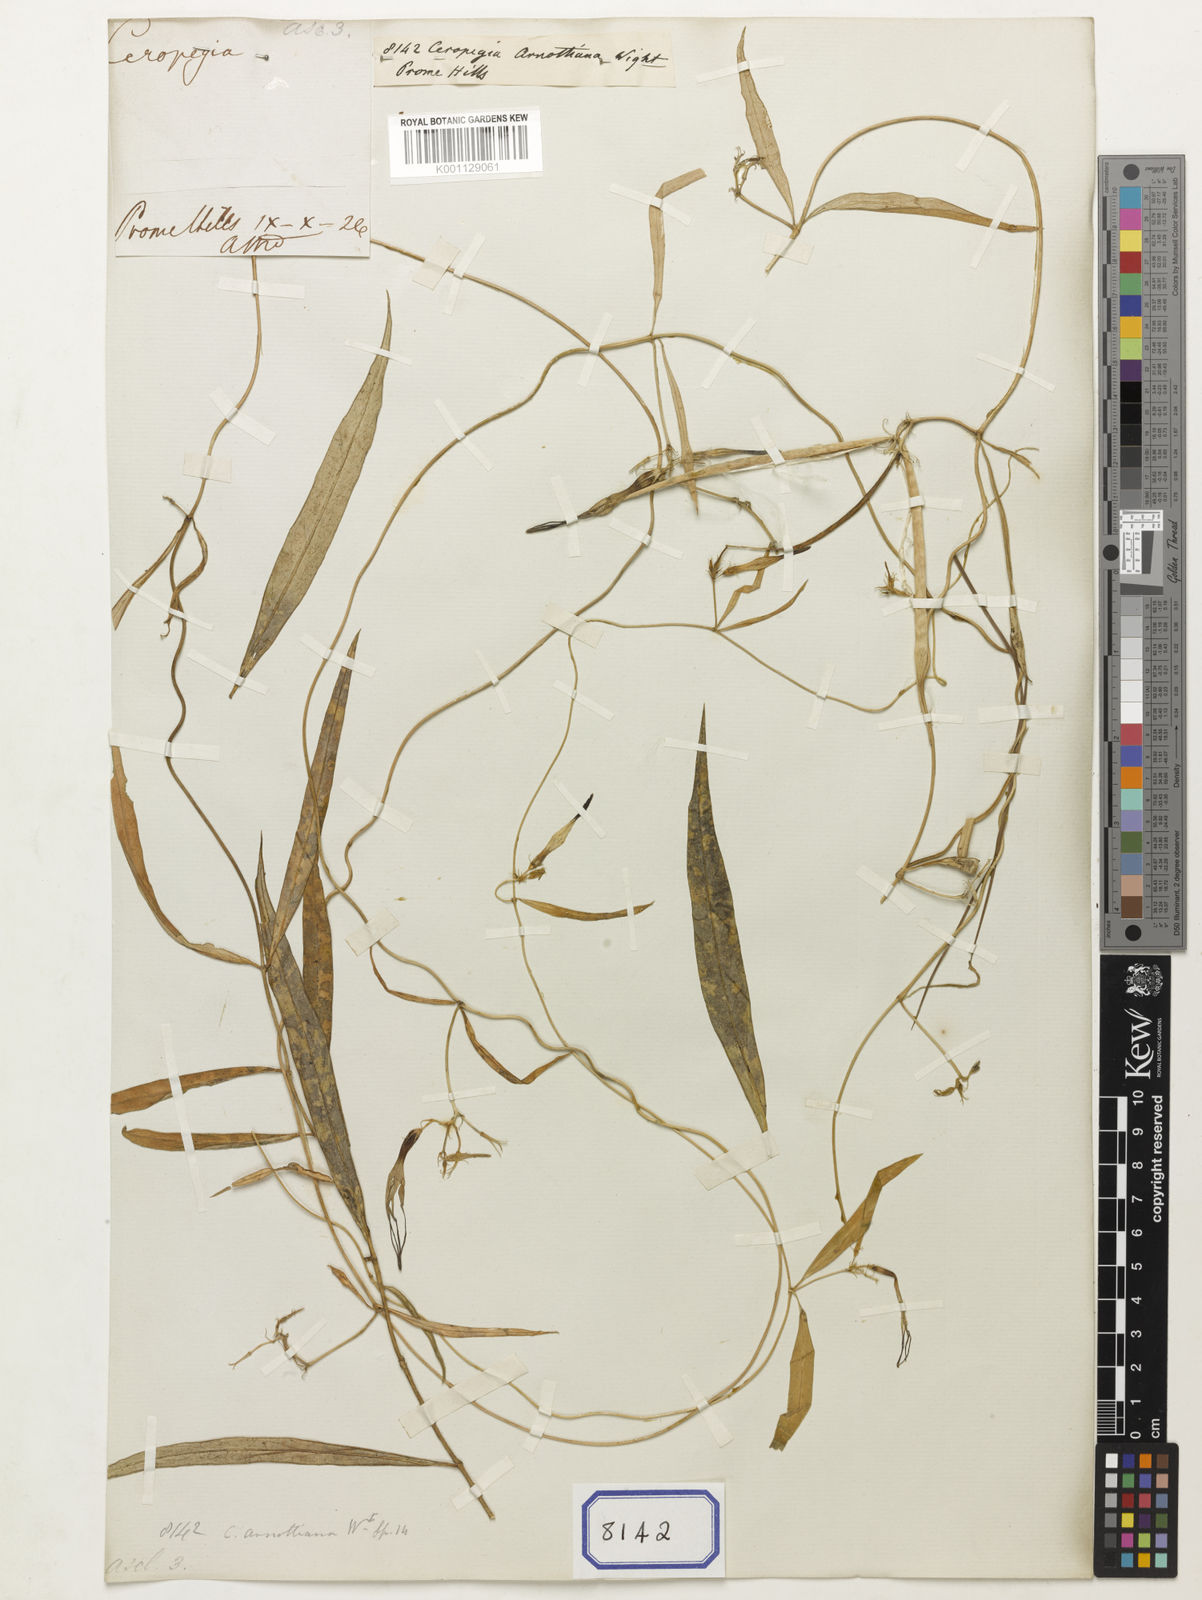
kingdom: Plantae
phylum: Tracheophyta
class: Magnoliopsida
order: Gentianales
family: Apocynaceae
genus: Ceropegia
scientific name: Ceropegia arnottiana
